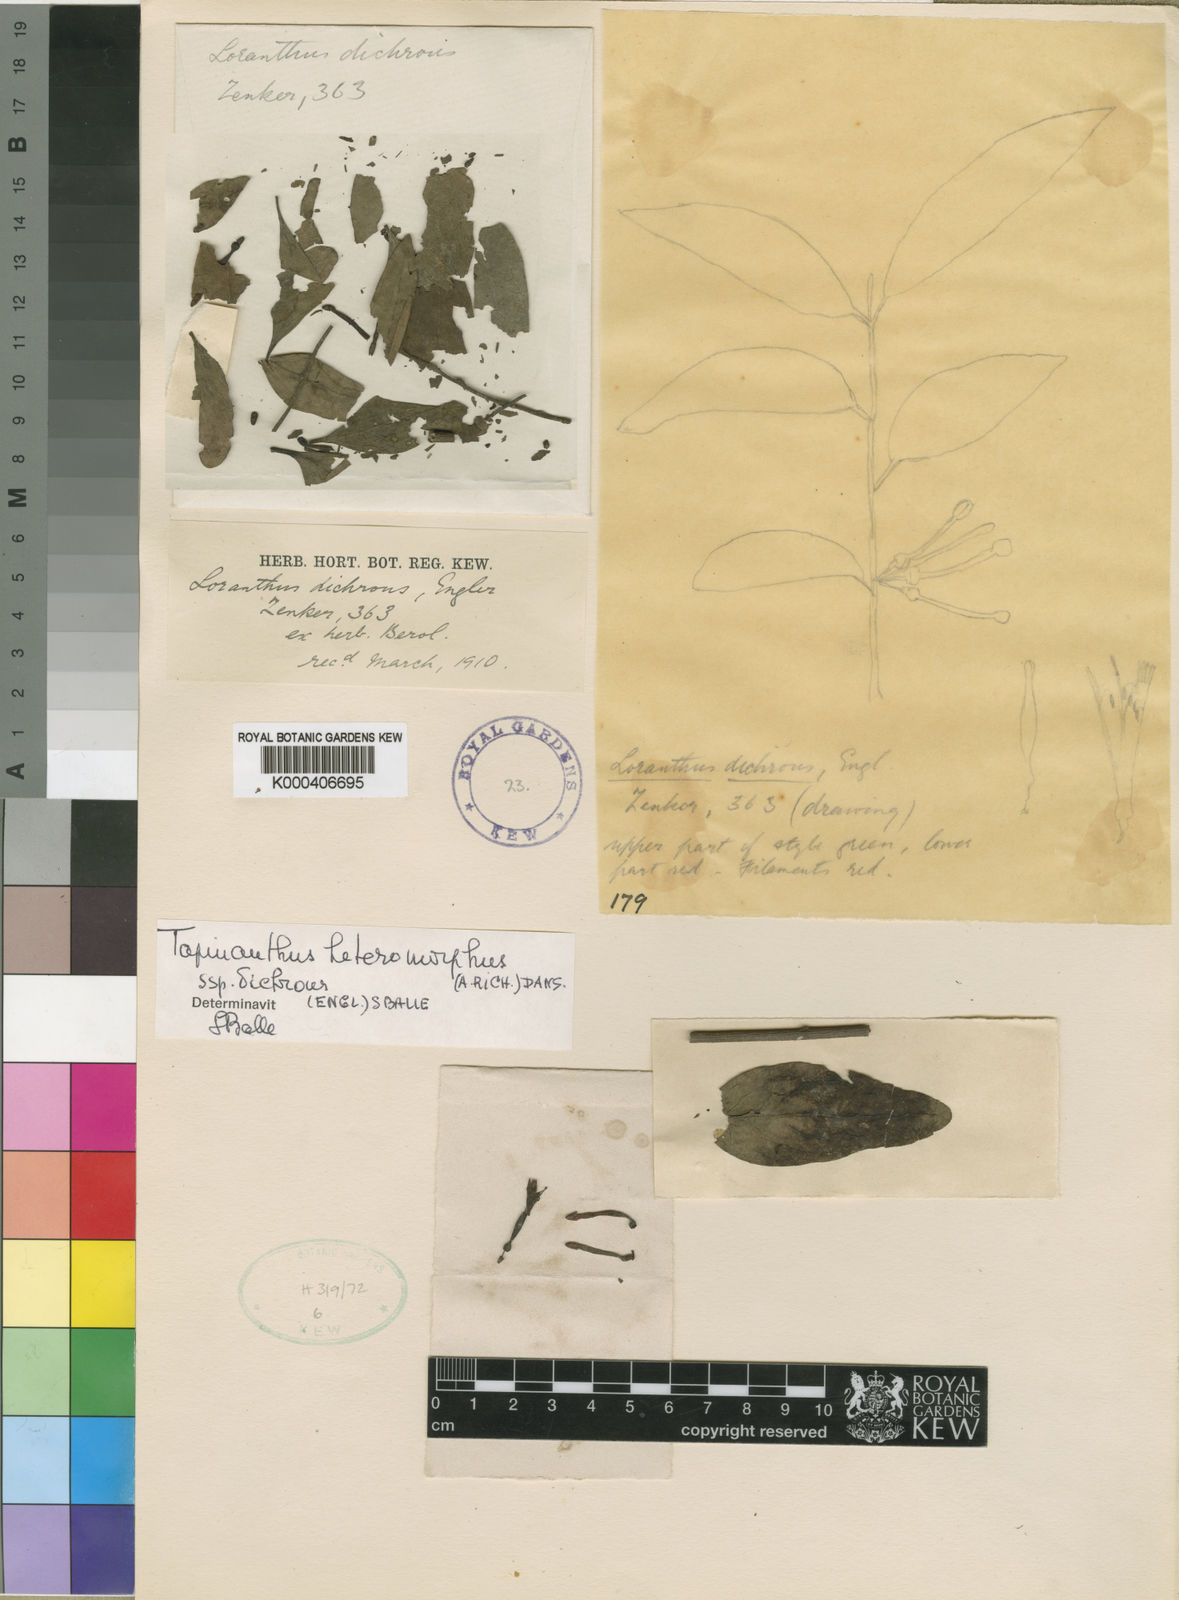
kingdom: Plantae
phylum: Tracheophyta
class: Magnoliopsida
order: Santalales
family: Loranthaceae
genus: Agelanthus
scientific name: Agelanthus dichrous
